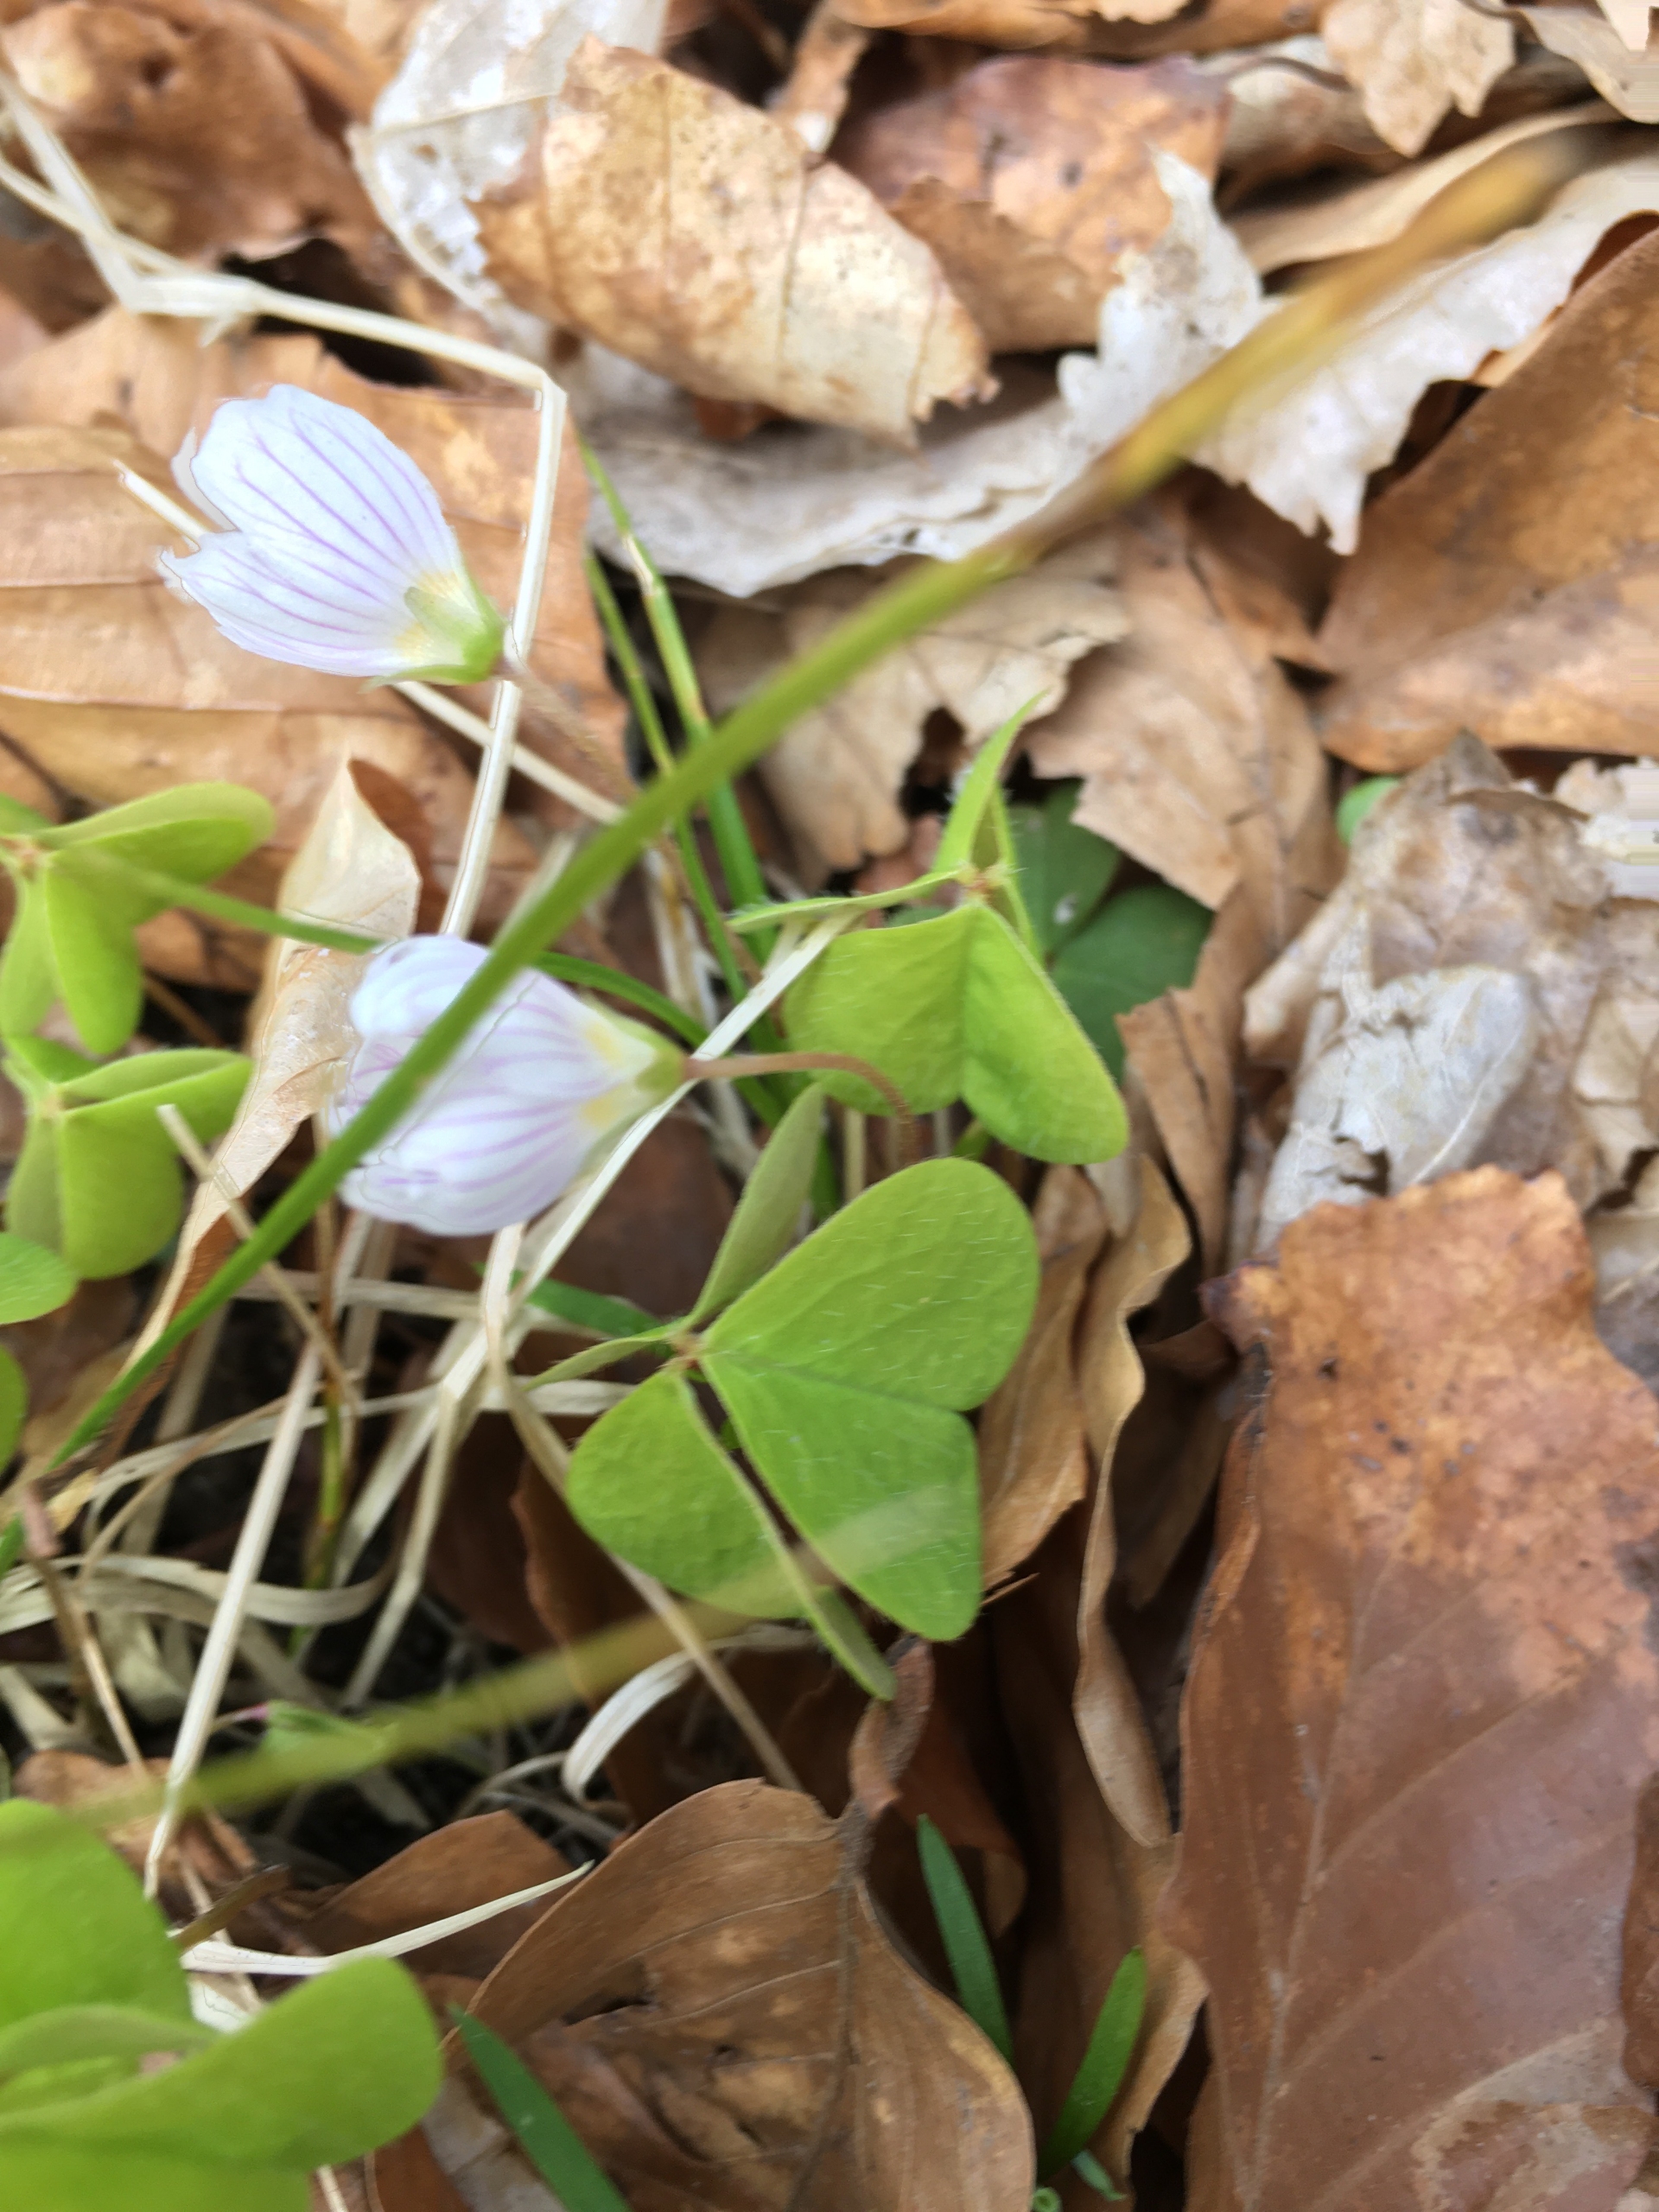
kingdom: Plantae
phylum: Tracheophyta
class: Magnoliopsida
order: Oxalidales
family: Oxalidaceae
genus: Oxalis
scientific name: Oxalis acetosella
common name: Skovsyre
